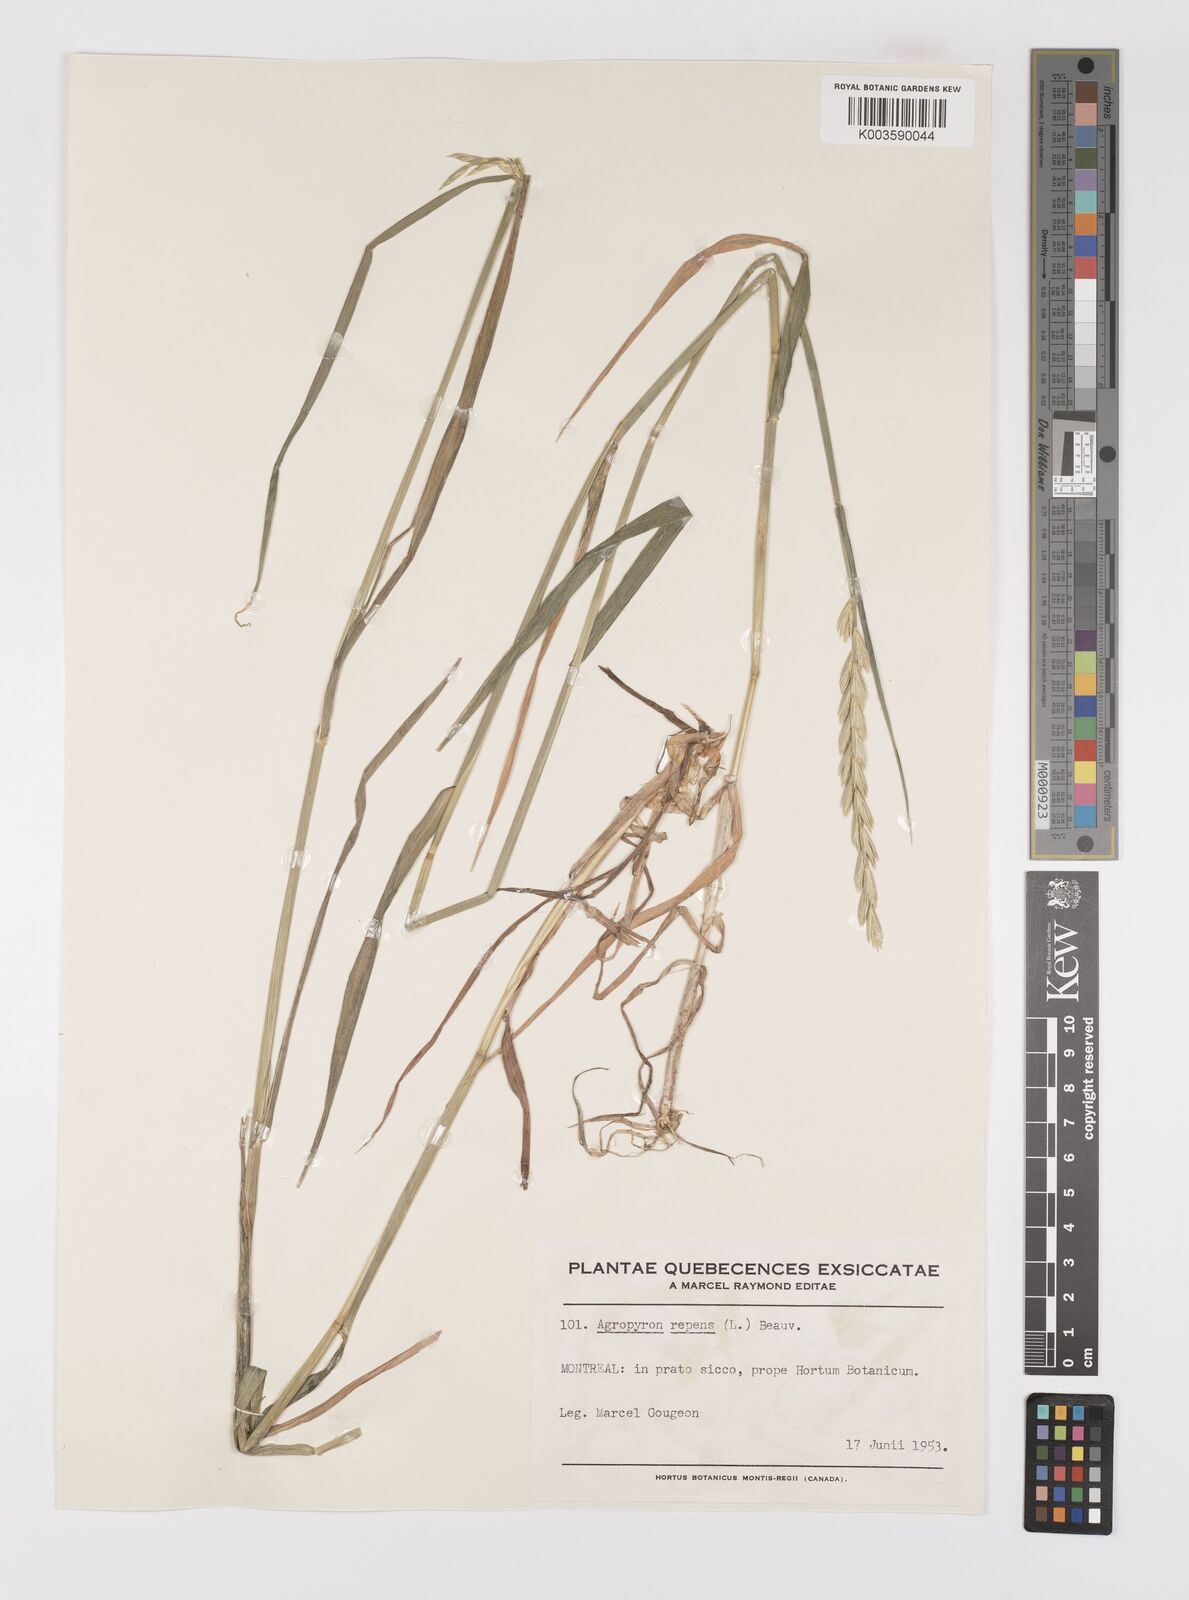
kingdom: Plantae
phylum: Tracheophyta
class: Liliopsida
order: Poales
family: Poaceae
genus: Elymus
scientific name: Elymus repens
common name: Quackgrass
